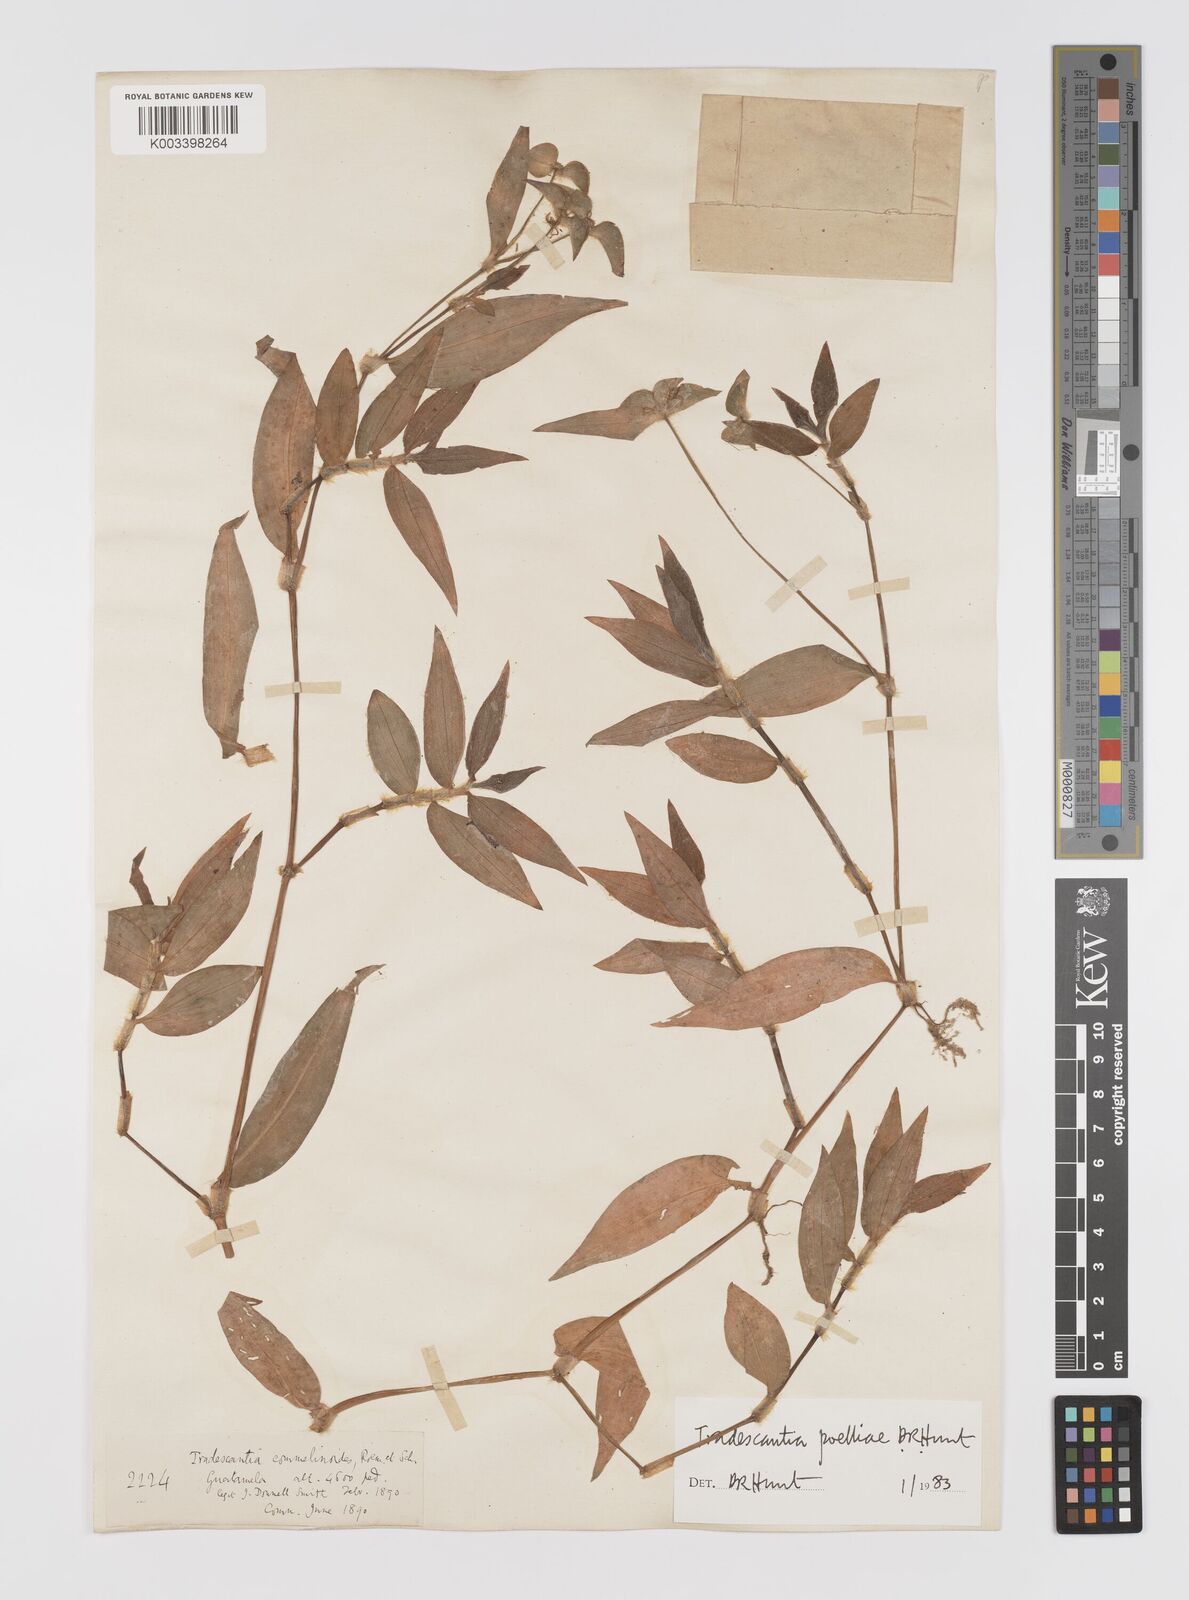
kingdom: Plantae
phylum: Tracheophyta
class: Liliopsida
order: Commelinales
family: Commelinaceae
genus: Tradescantia
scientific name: Tradescantia poelliae
